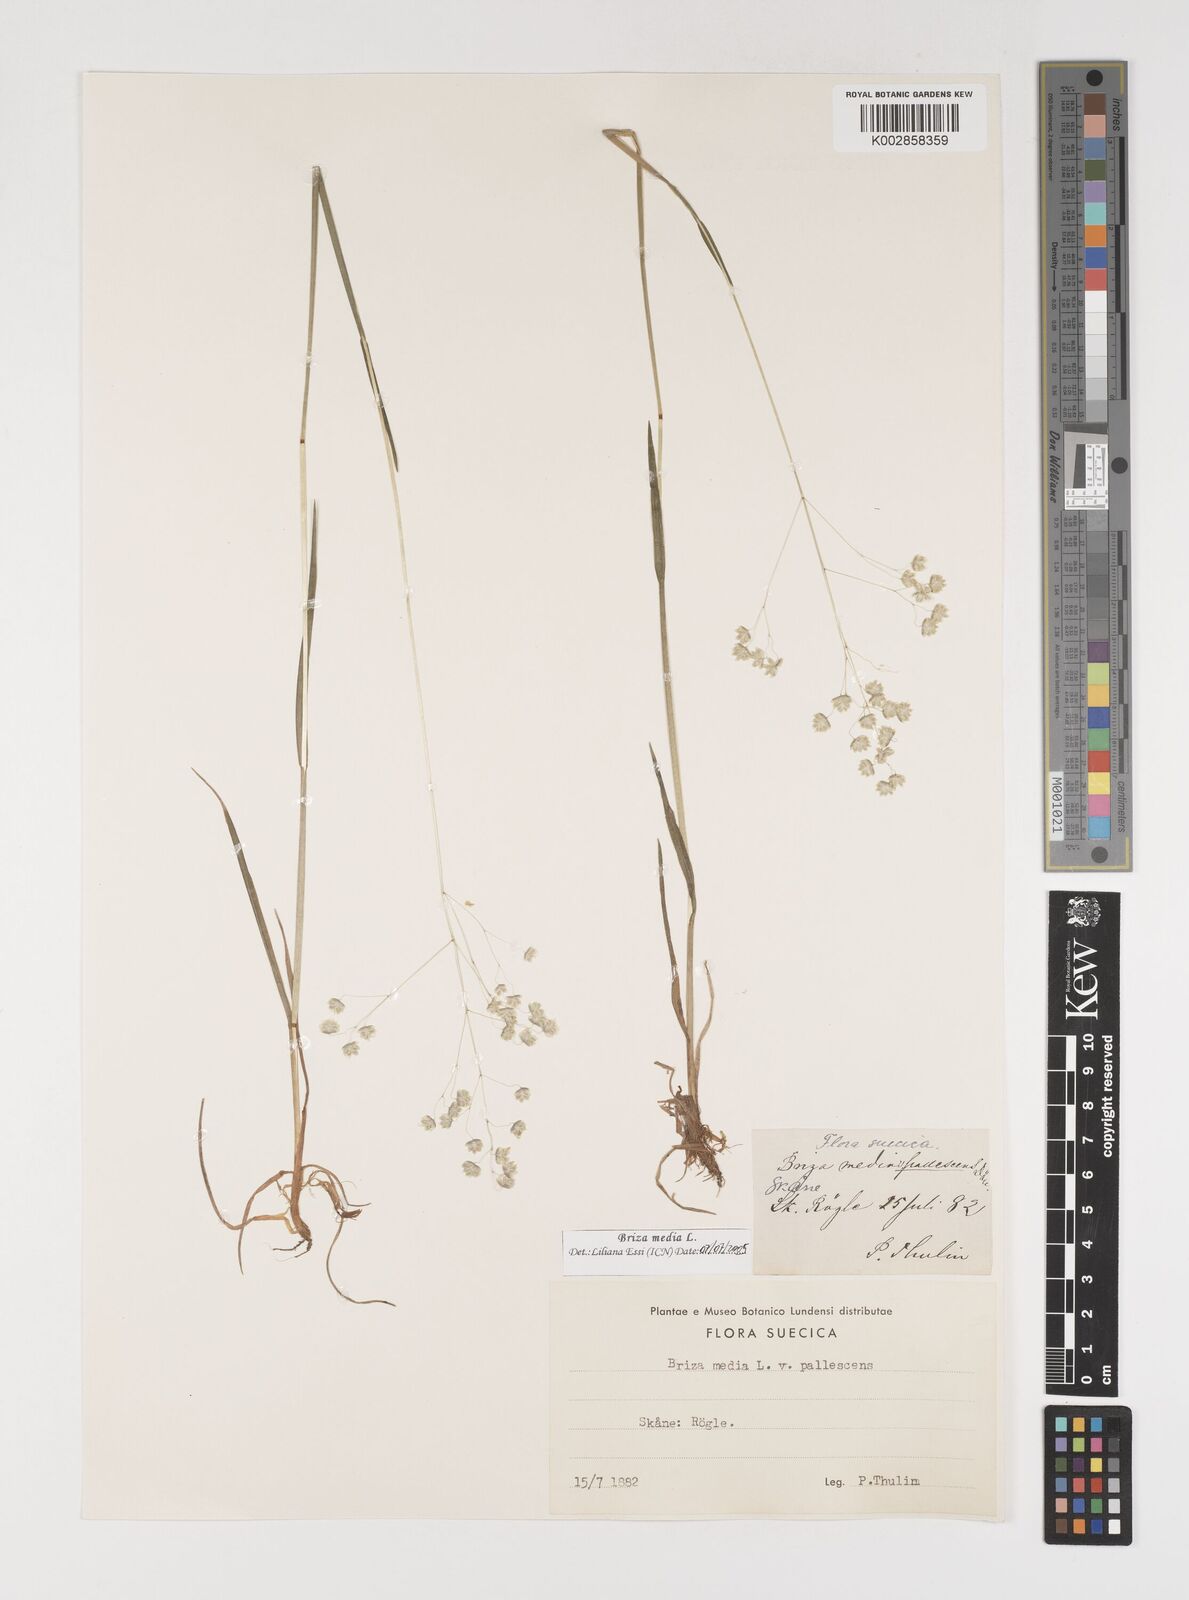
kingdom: Plantae
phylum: Tracheophyta
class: Liliopsida
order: Poales
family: Poaceae
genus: Briza
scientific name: Briza media
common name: Quaking grass
